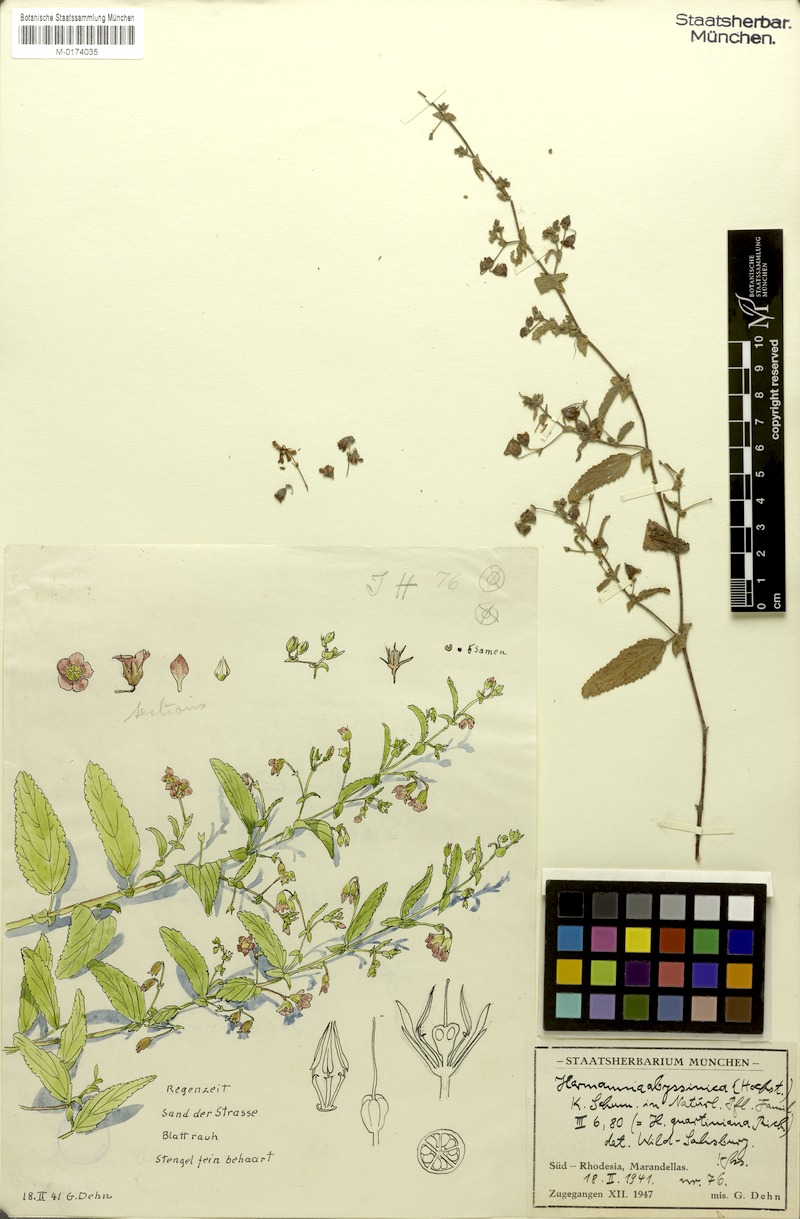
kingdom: Plantae
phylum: Tracheophyta
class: Magnoliopsida
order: Malvales
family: Malvaceae
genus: Hermannia
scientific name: Hermannia quartiniana
